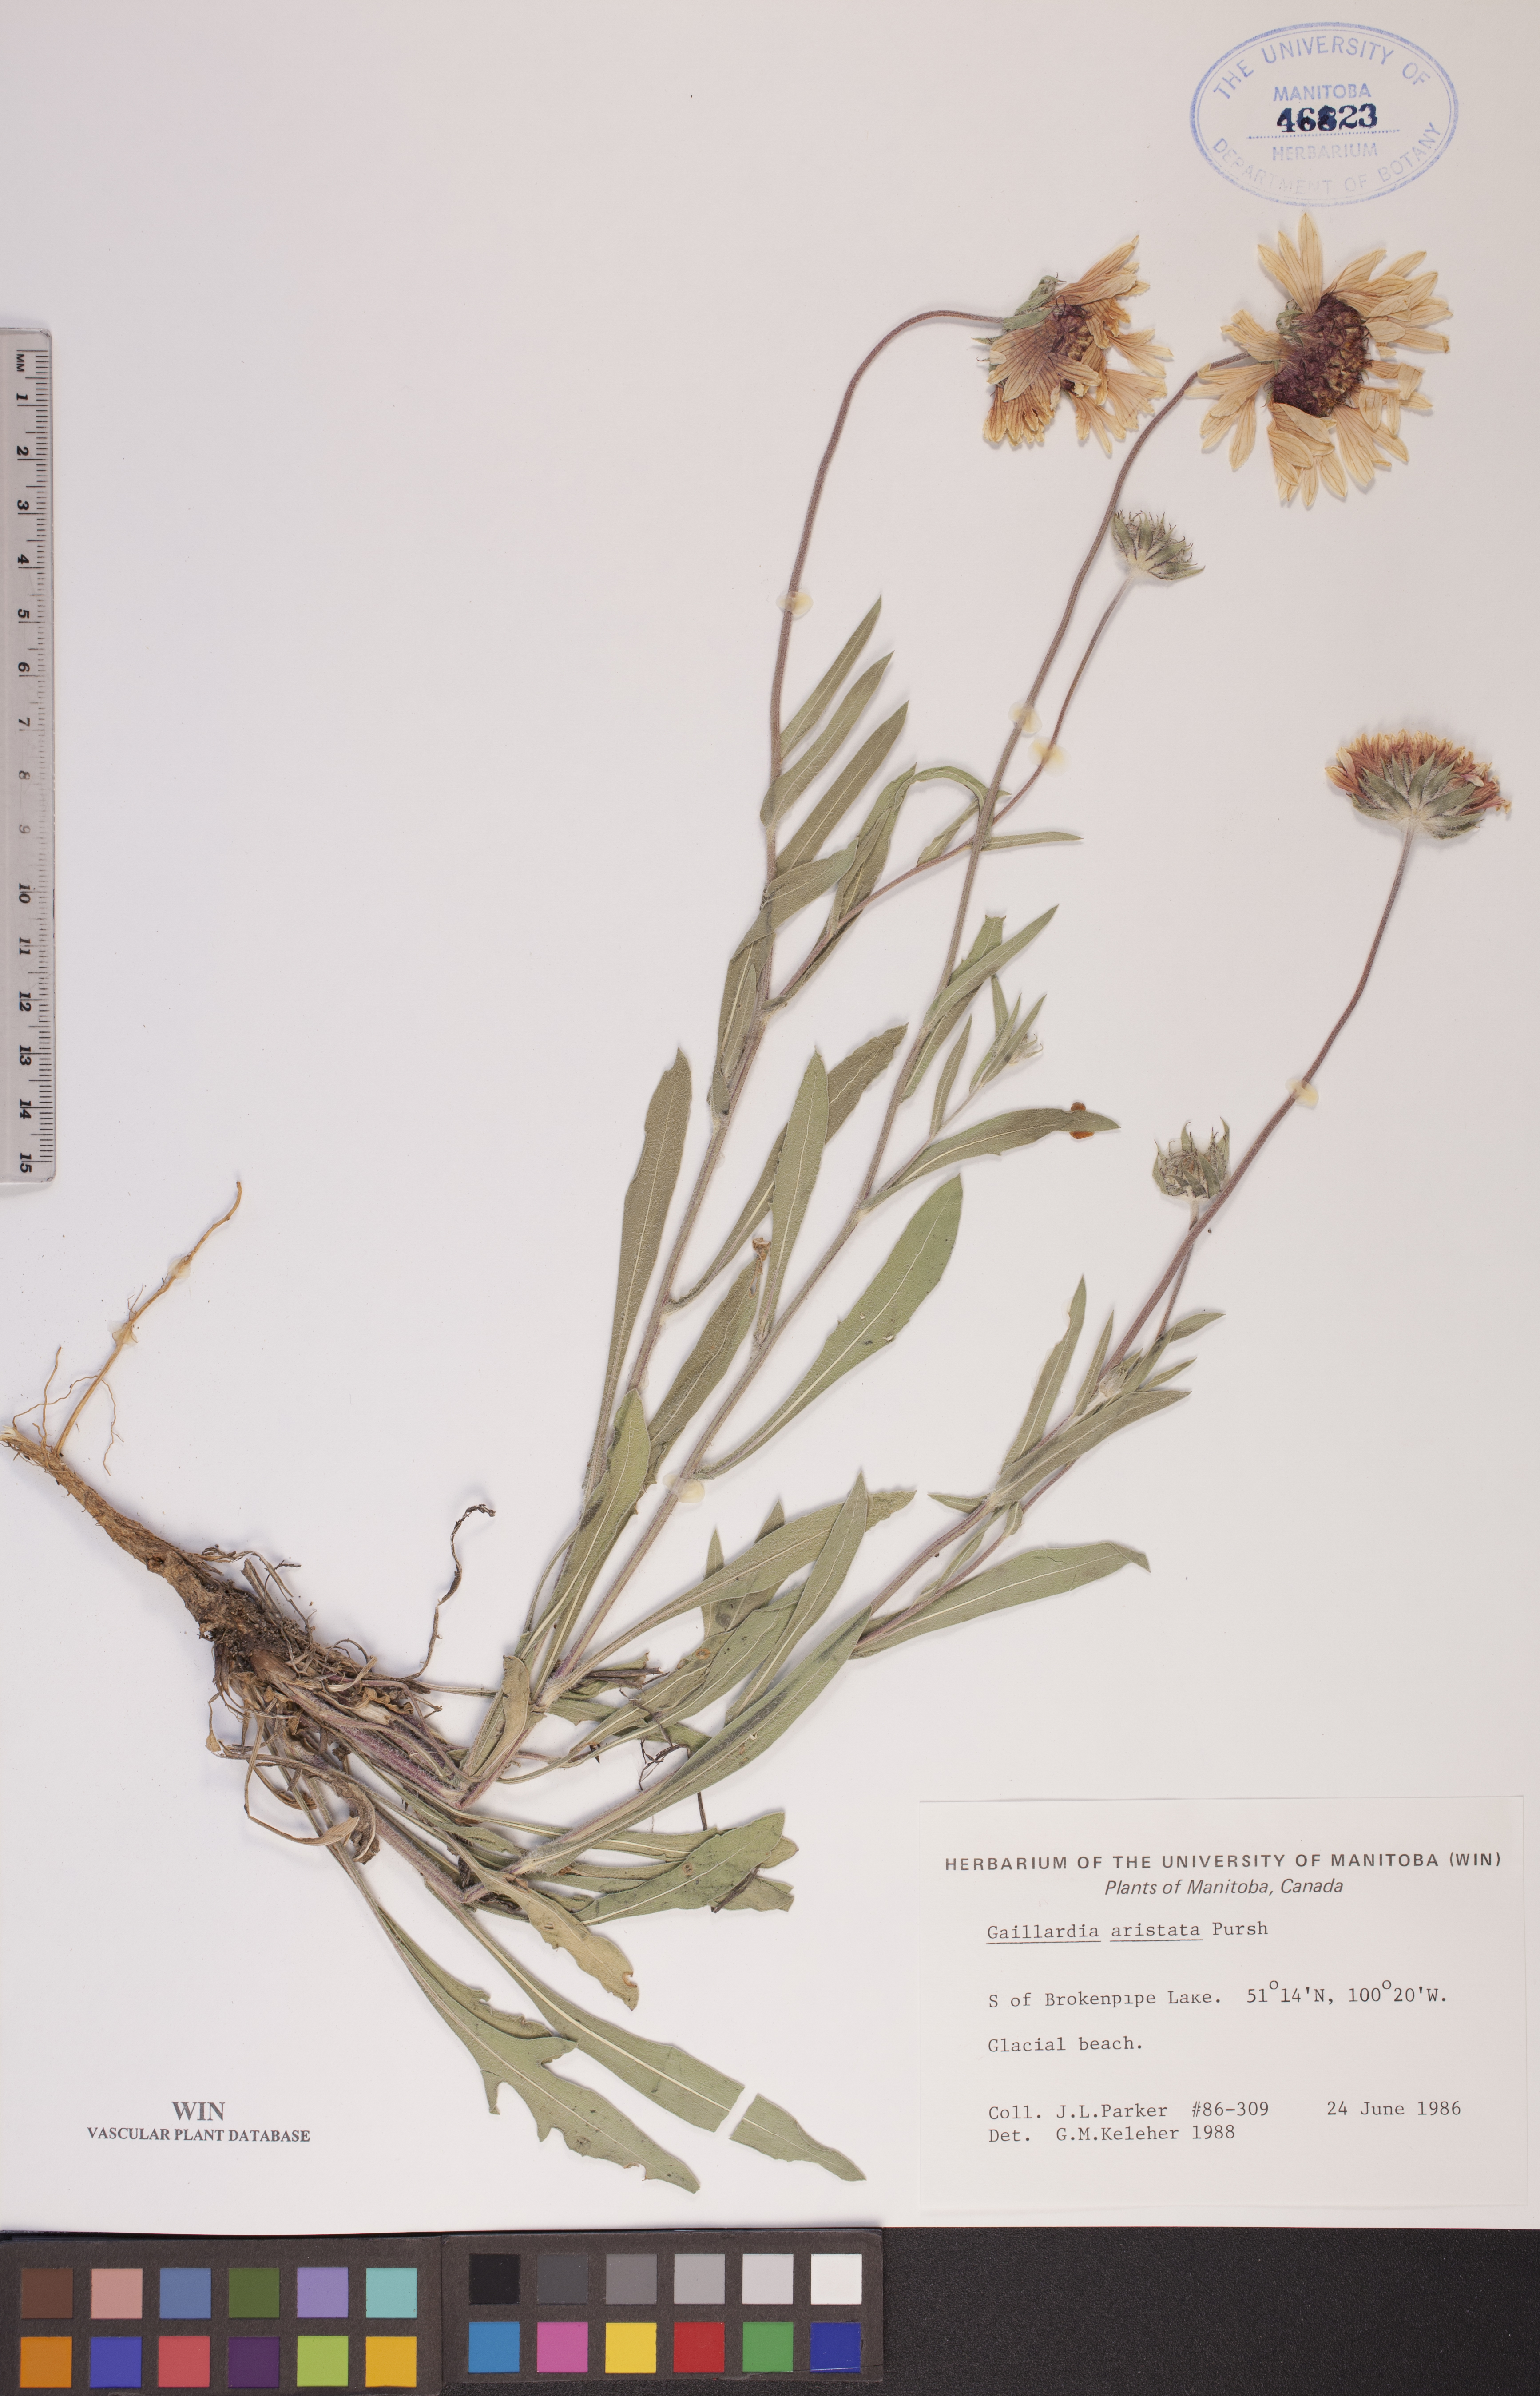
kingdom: Plantae
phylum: Tracheophyta
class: Magnoliopsida
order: Asterales
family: Asteraceae
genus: Gaillardia
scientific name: Gaillardia aristata
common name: Blanket-flower
